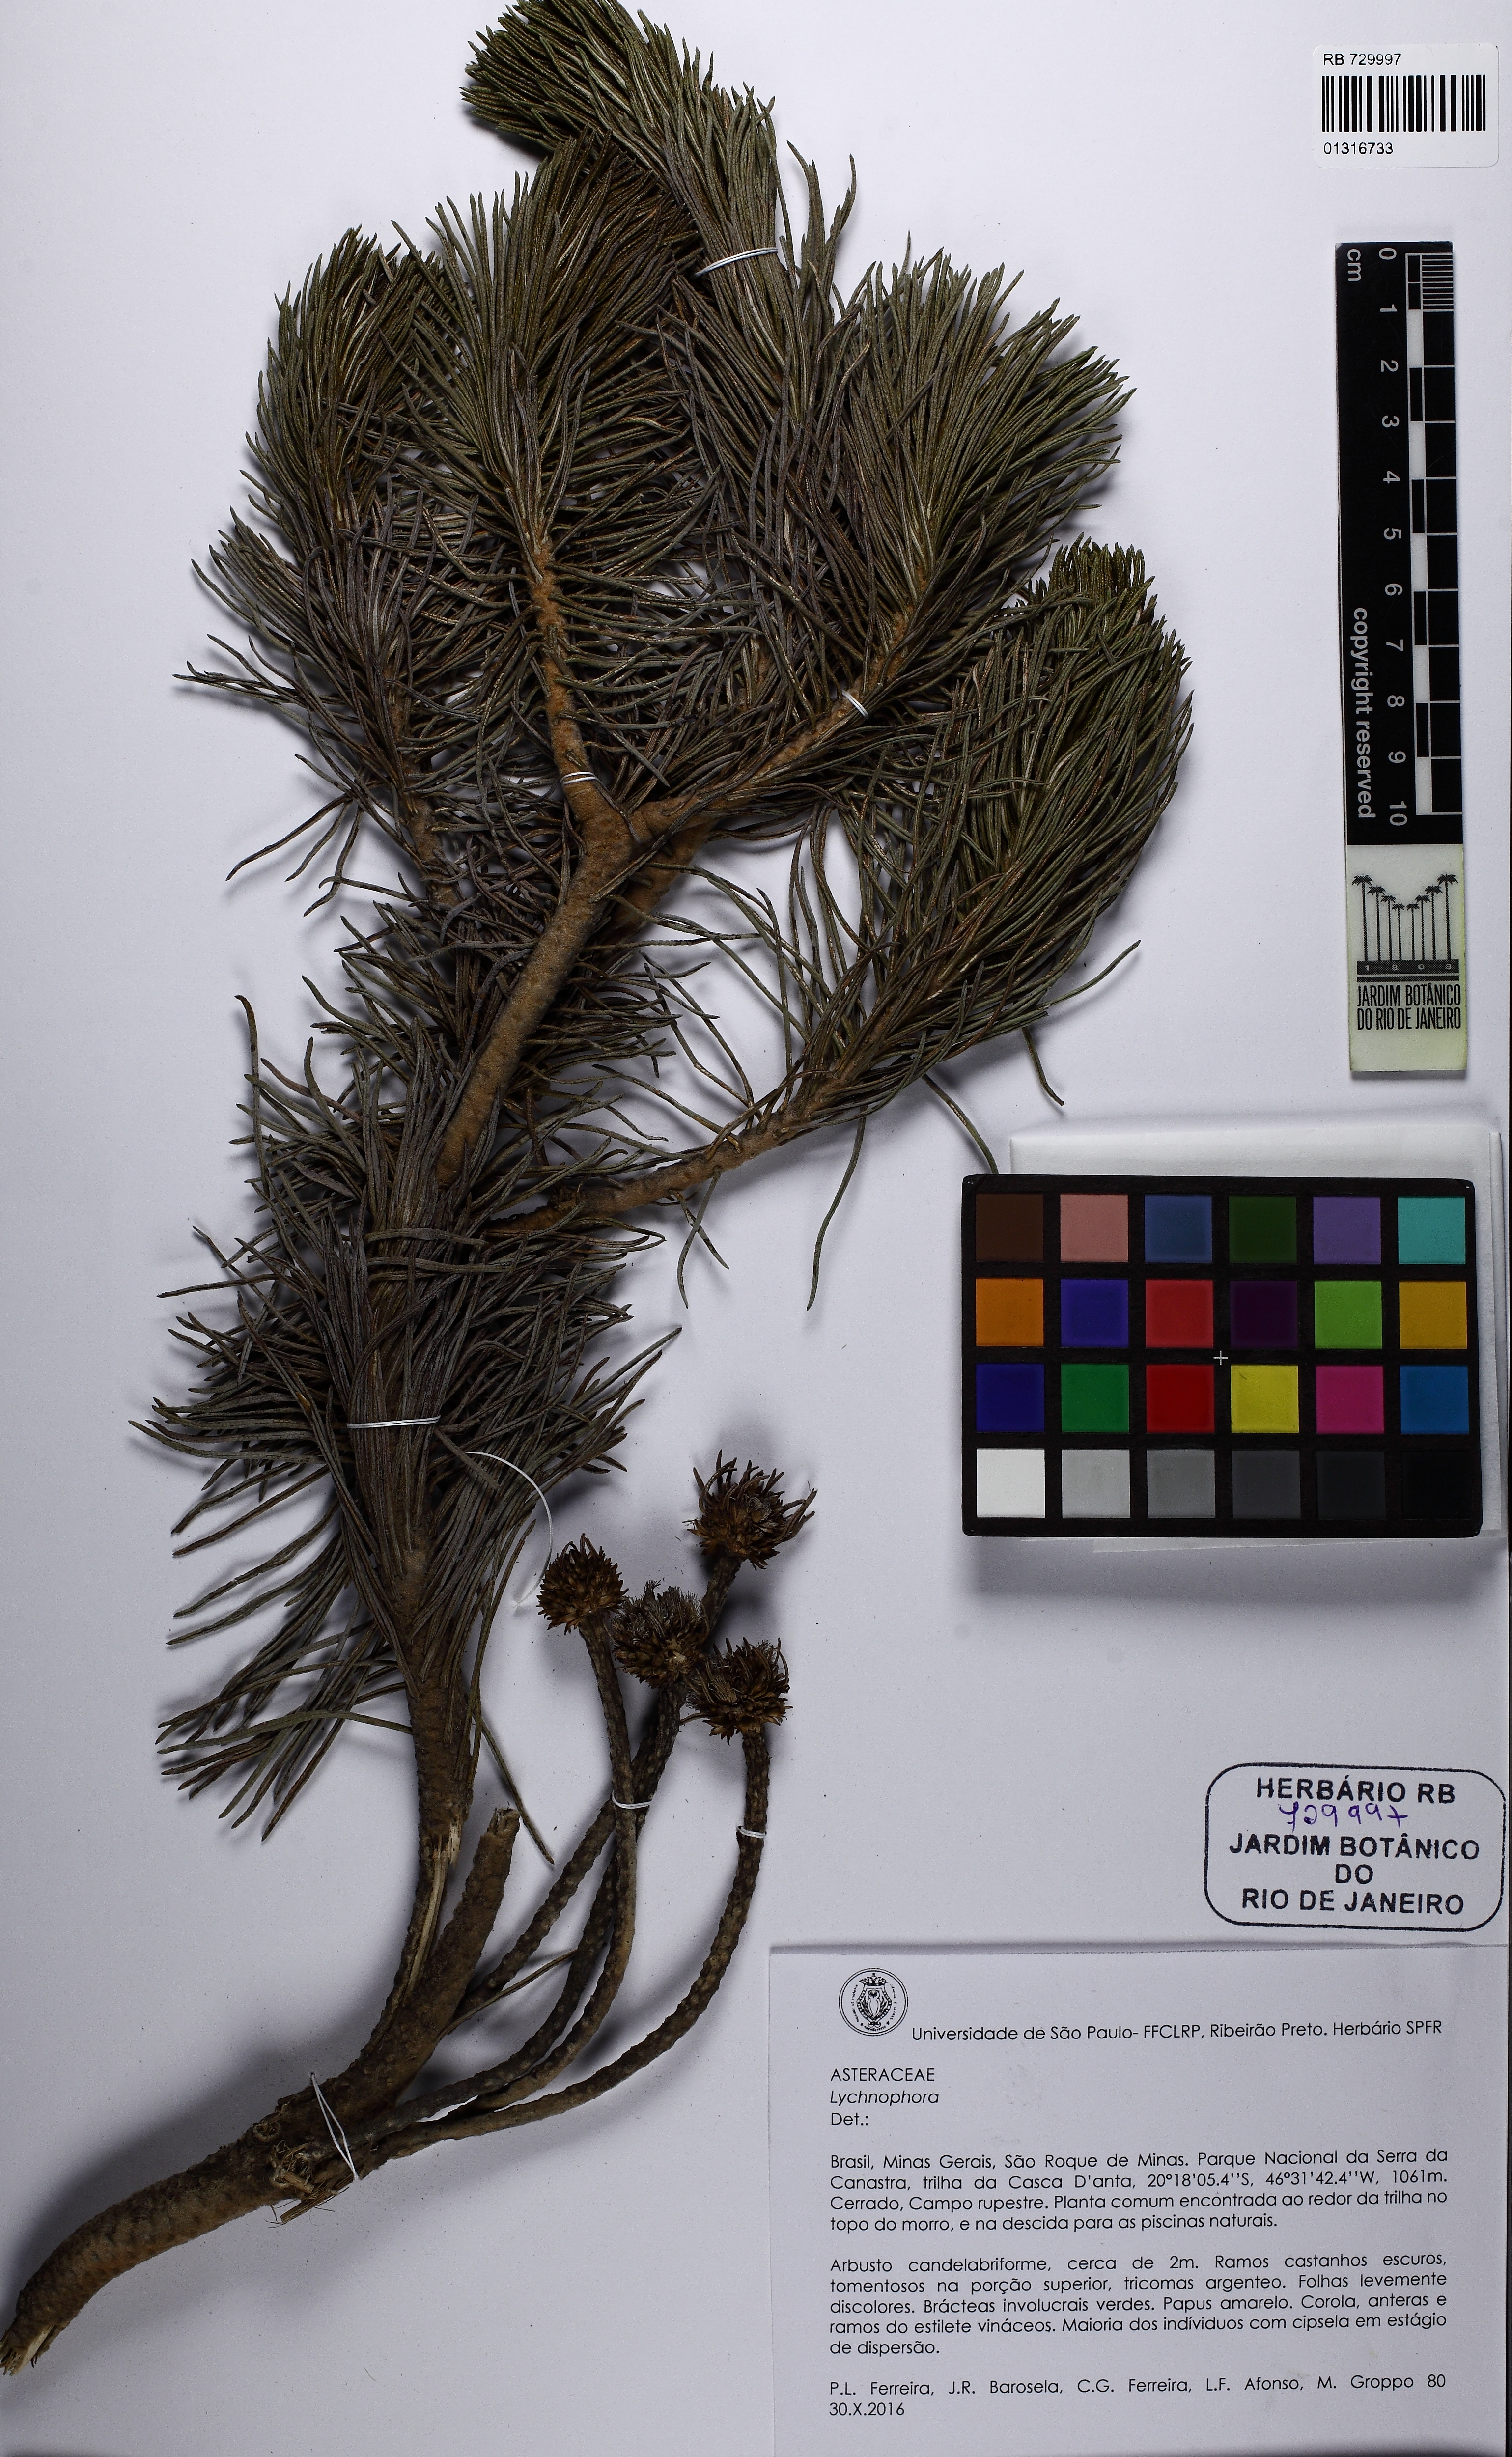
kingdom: Plantae
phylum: Tracheophyta
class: Magnoliopsida
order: Asterales
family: Asteraceae
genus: Lychnophora
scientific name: Lychnophora
